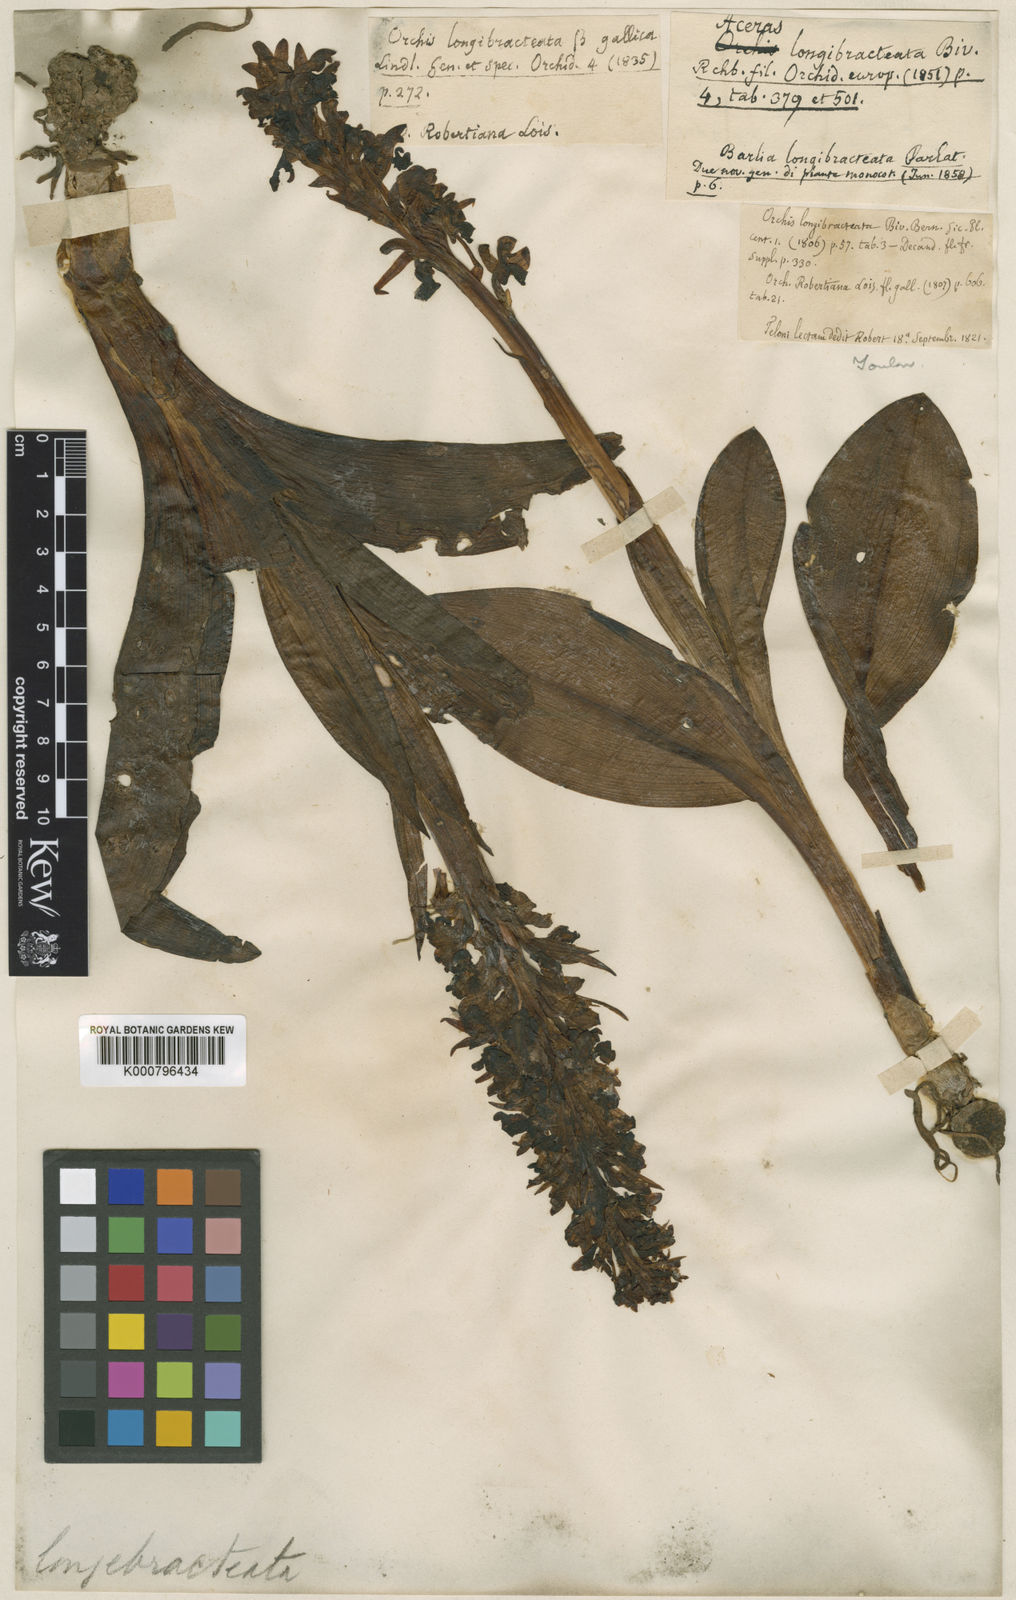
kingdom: Plantae
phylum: Tracheophyta
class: Liliopsida
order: Asparagales
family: Orchidaceae
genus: Himantoglossum
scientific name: Himantoglossum robertianum
